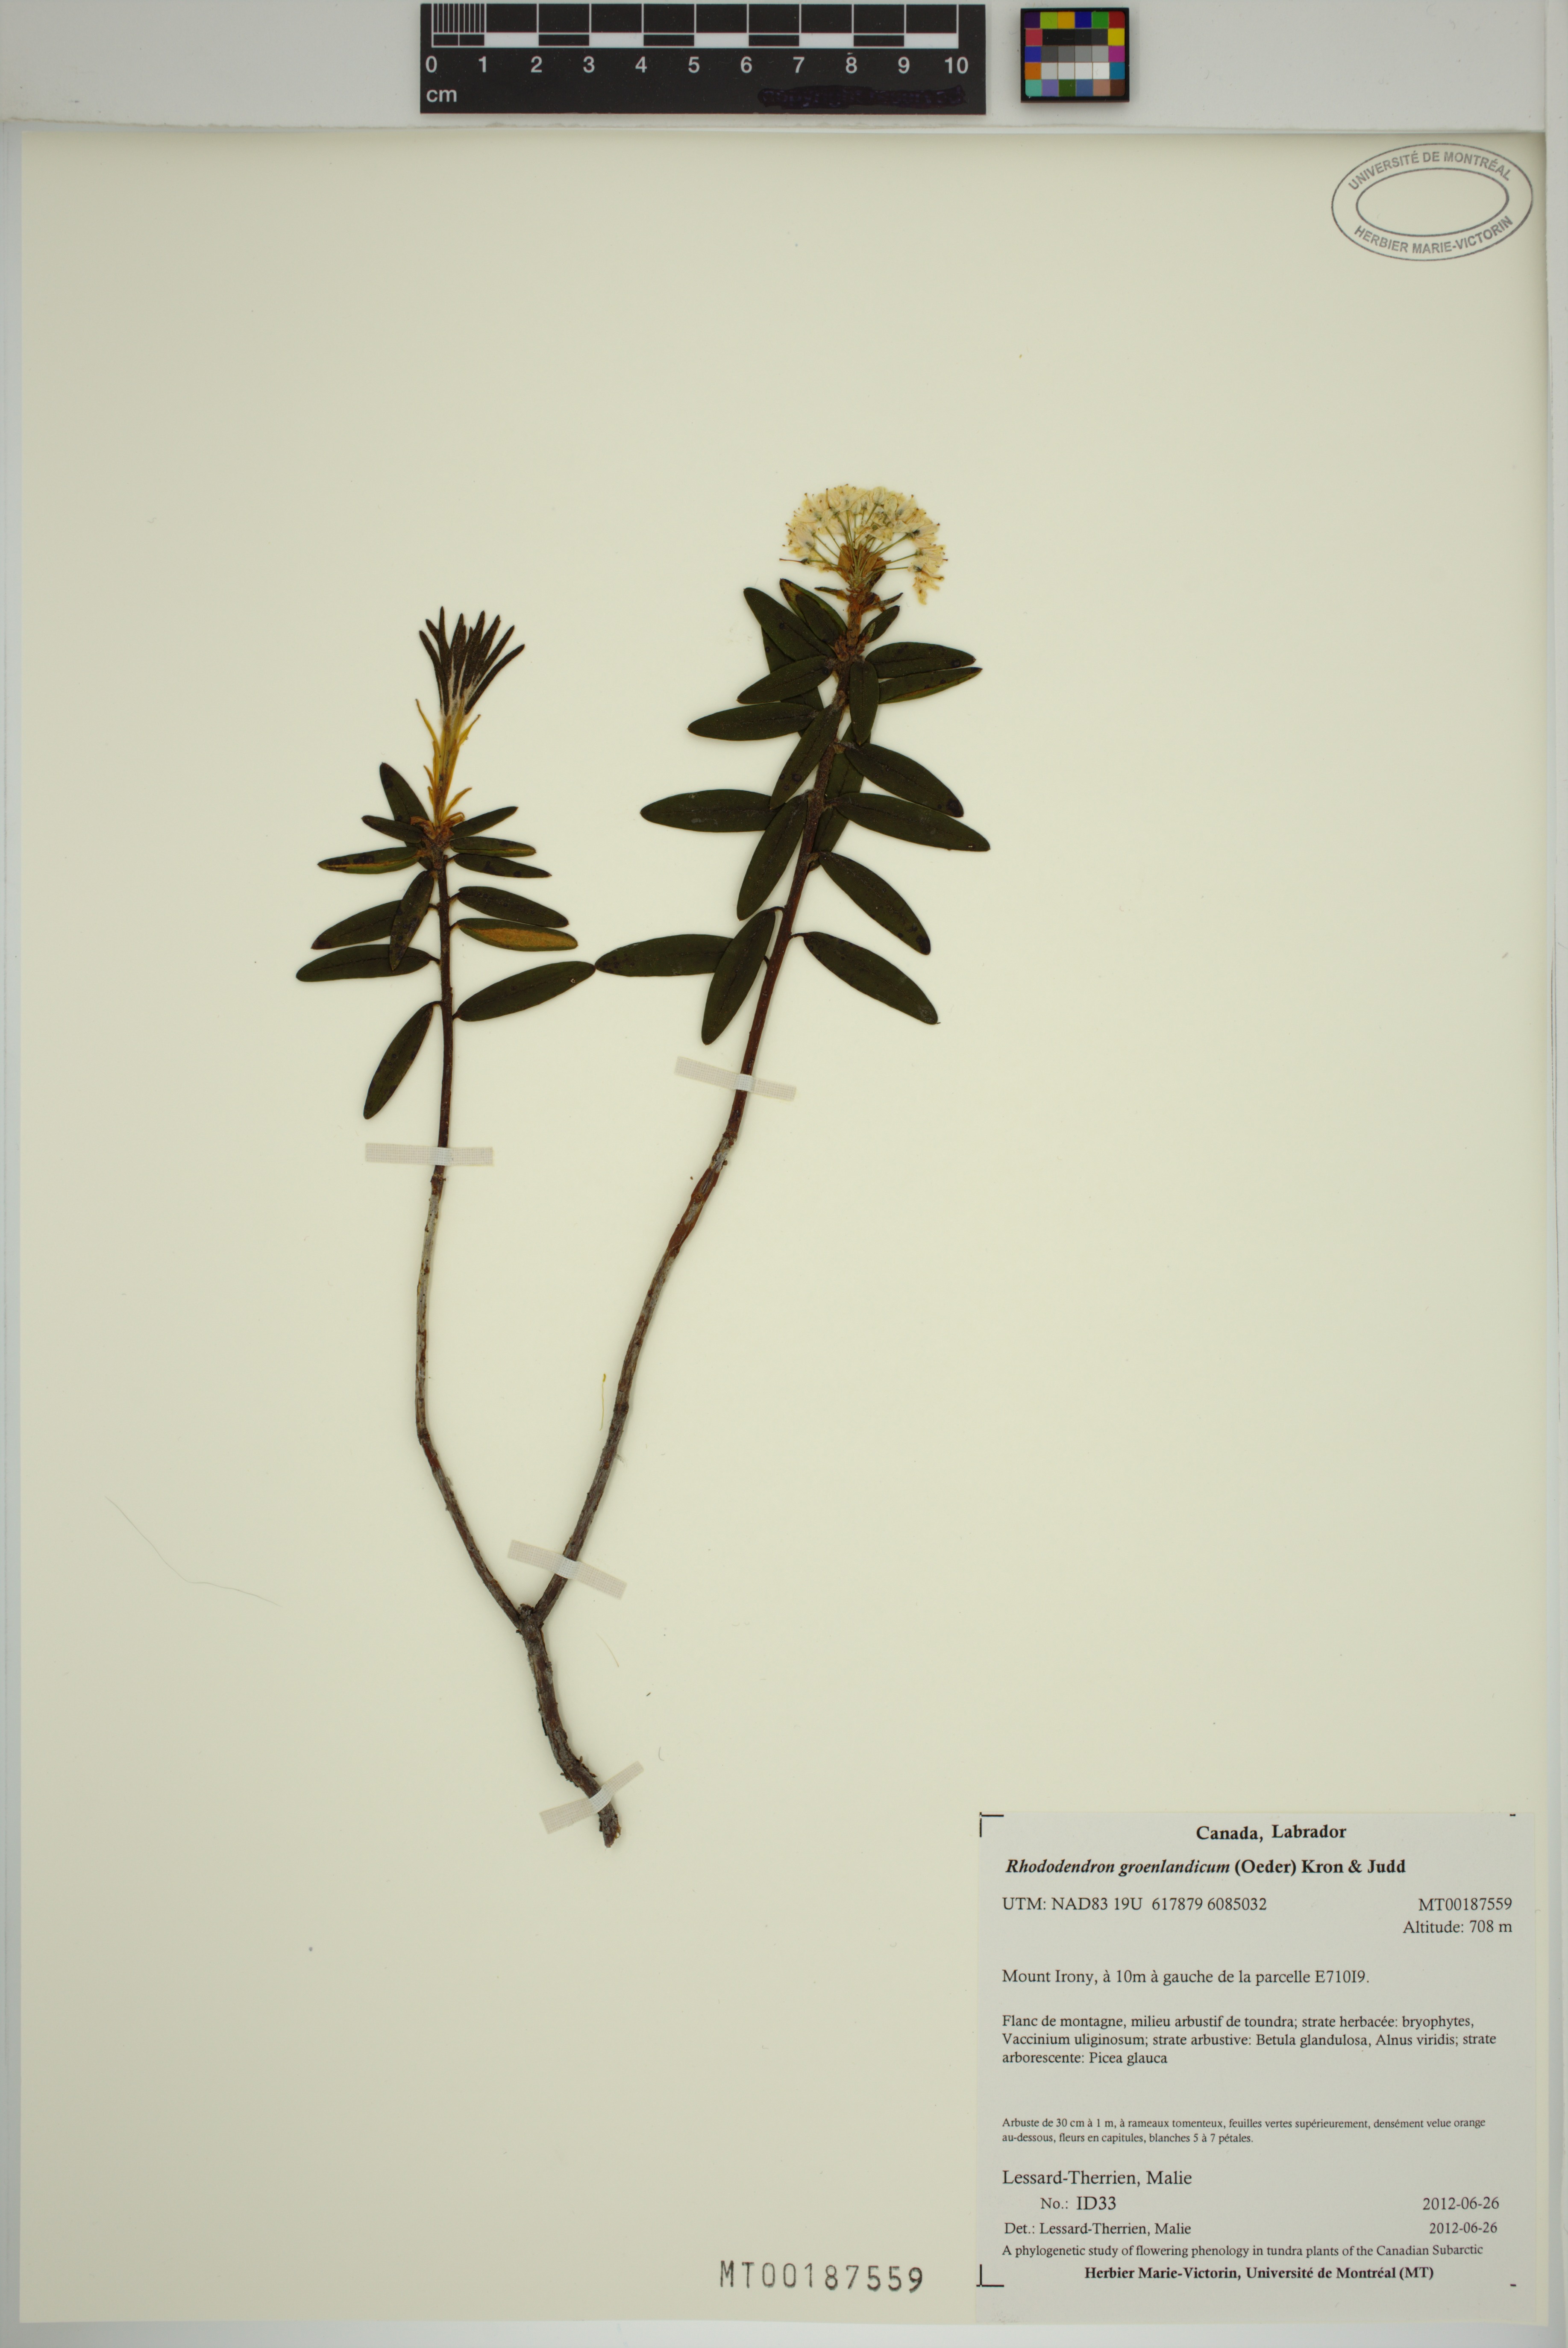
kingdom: Plantae
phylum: Tracheophyta
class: Magnoliopsida
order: Ericales
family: Ericaceae
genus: Rhododendron
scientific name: Rhododendron groenlandicum
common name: Bog labrador tea
